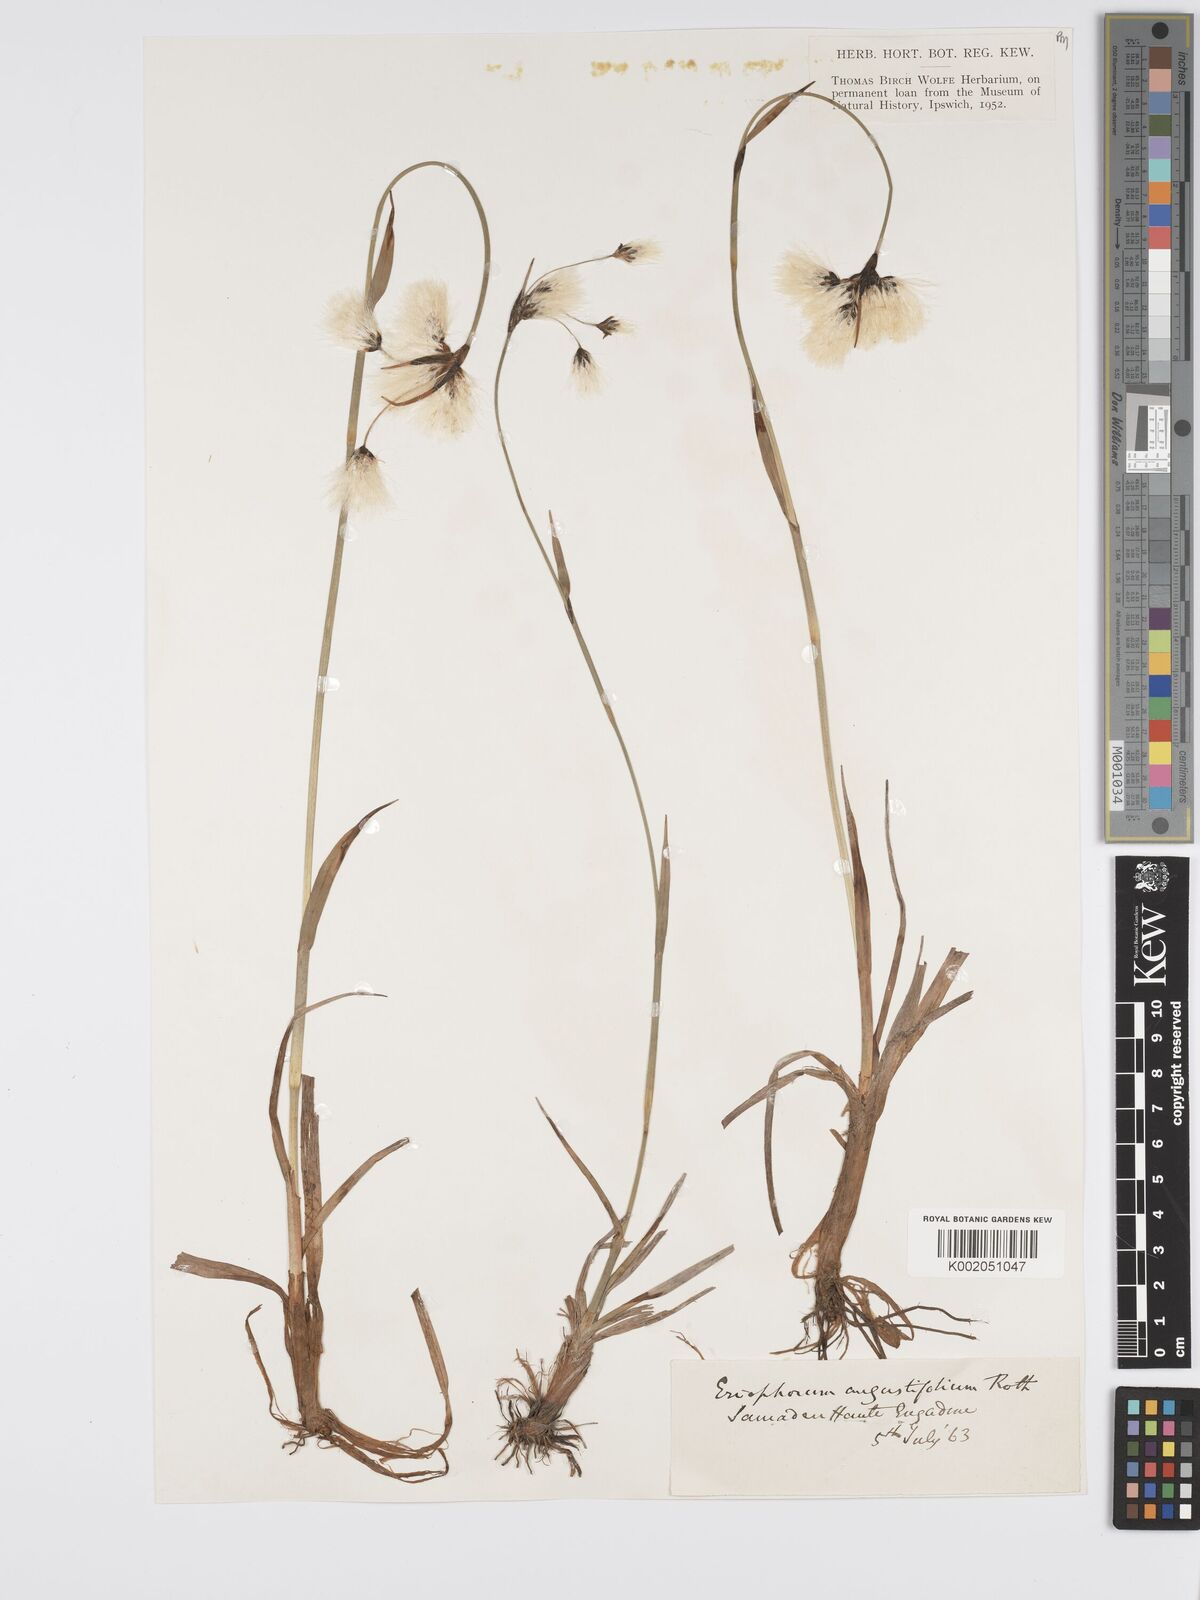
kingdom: Plantae
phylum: Tracheophyta
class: Liliopsida
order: Poales
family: Cyperaceae
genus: Eriophorum
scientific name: Eriophorum angustifolium
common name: Common cottongrass
